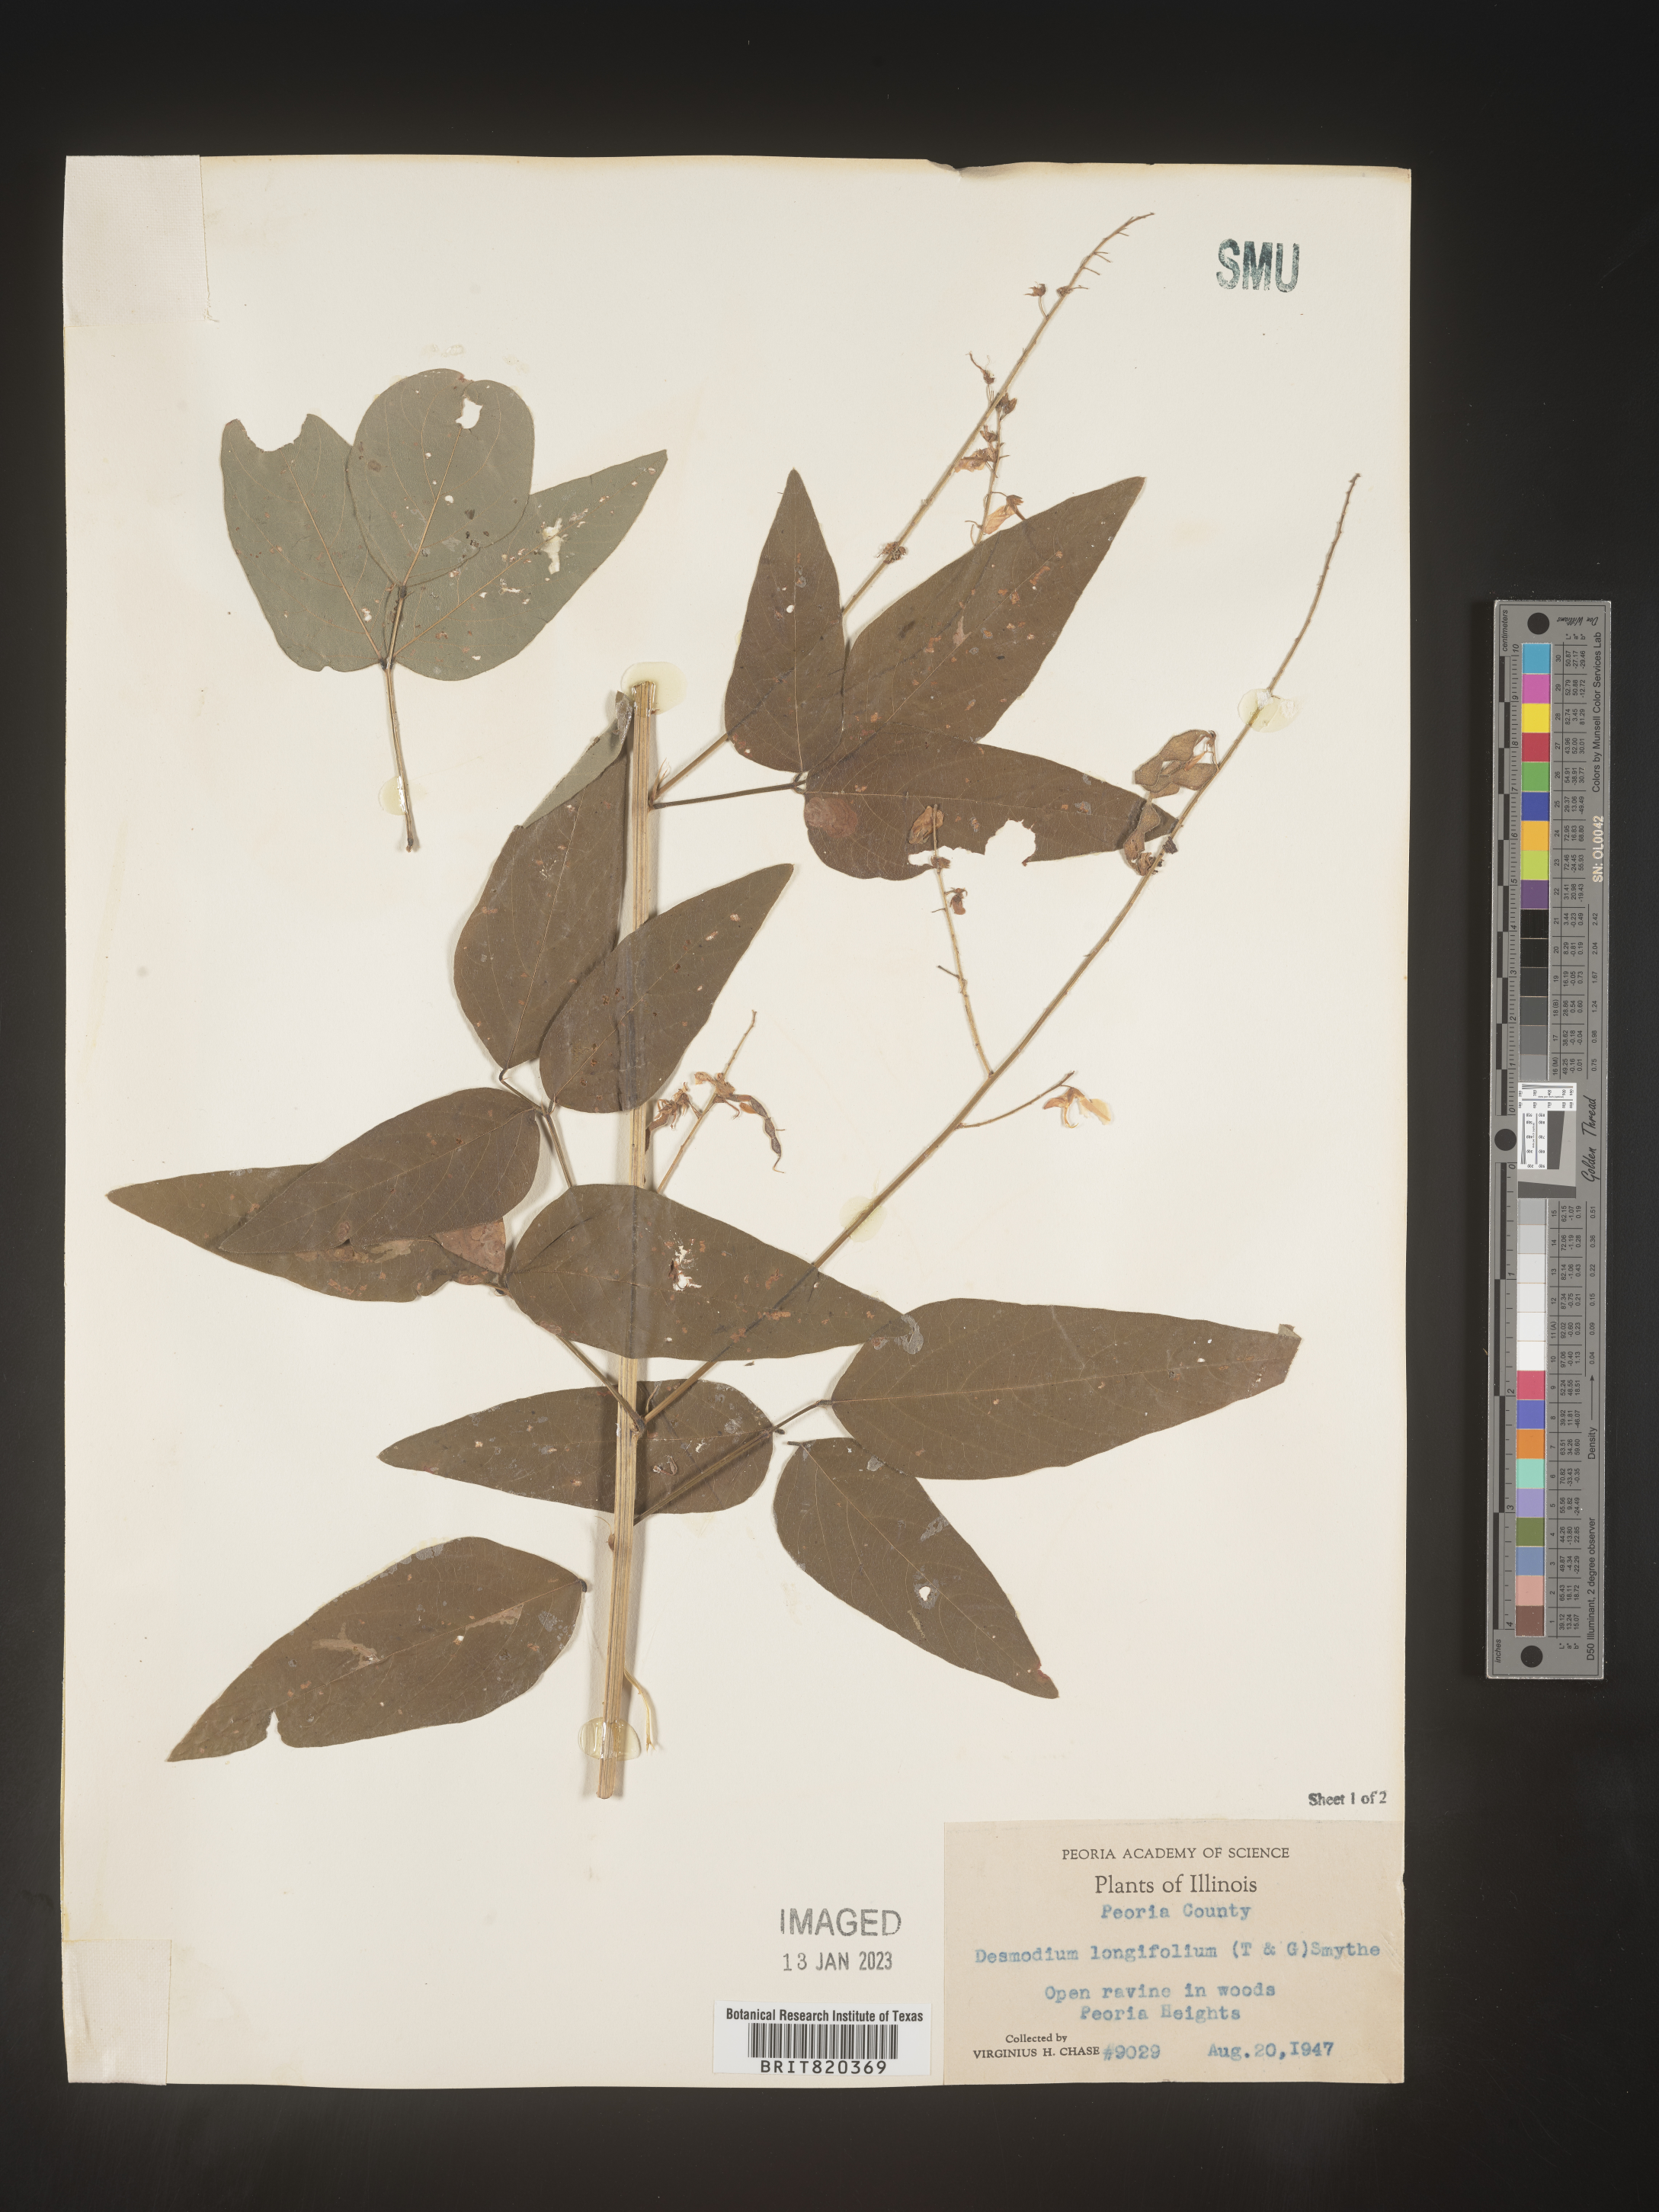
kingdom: Plantae
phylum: Tracheophyta
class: Magnoliopsida
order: Fabales
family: Fabaceae
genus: Desmodium
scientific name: Desmodium
